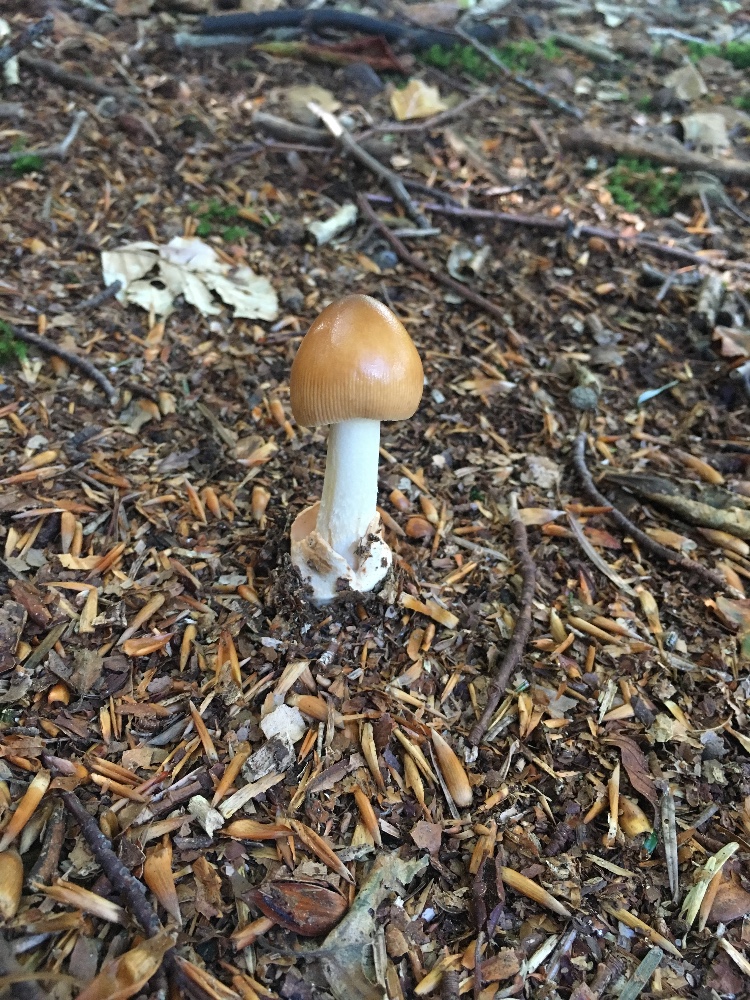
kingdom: Fungi
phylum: Basidiomycota
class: Agaricomycetes
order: Agaricales
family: Amanitaceae
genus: Amanita
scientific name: Amanita fulva
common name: brun kam-fluesvamp
